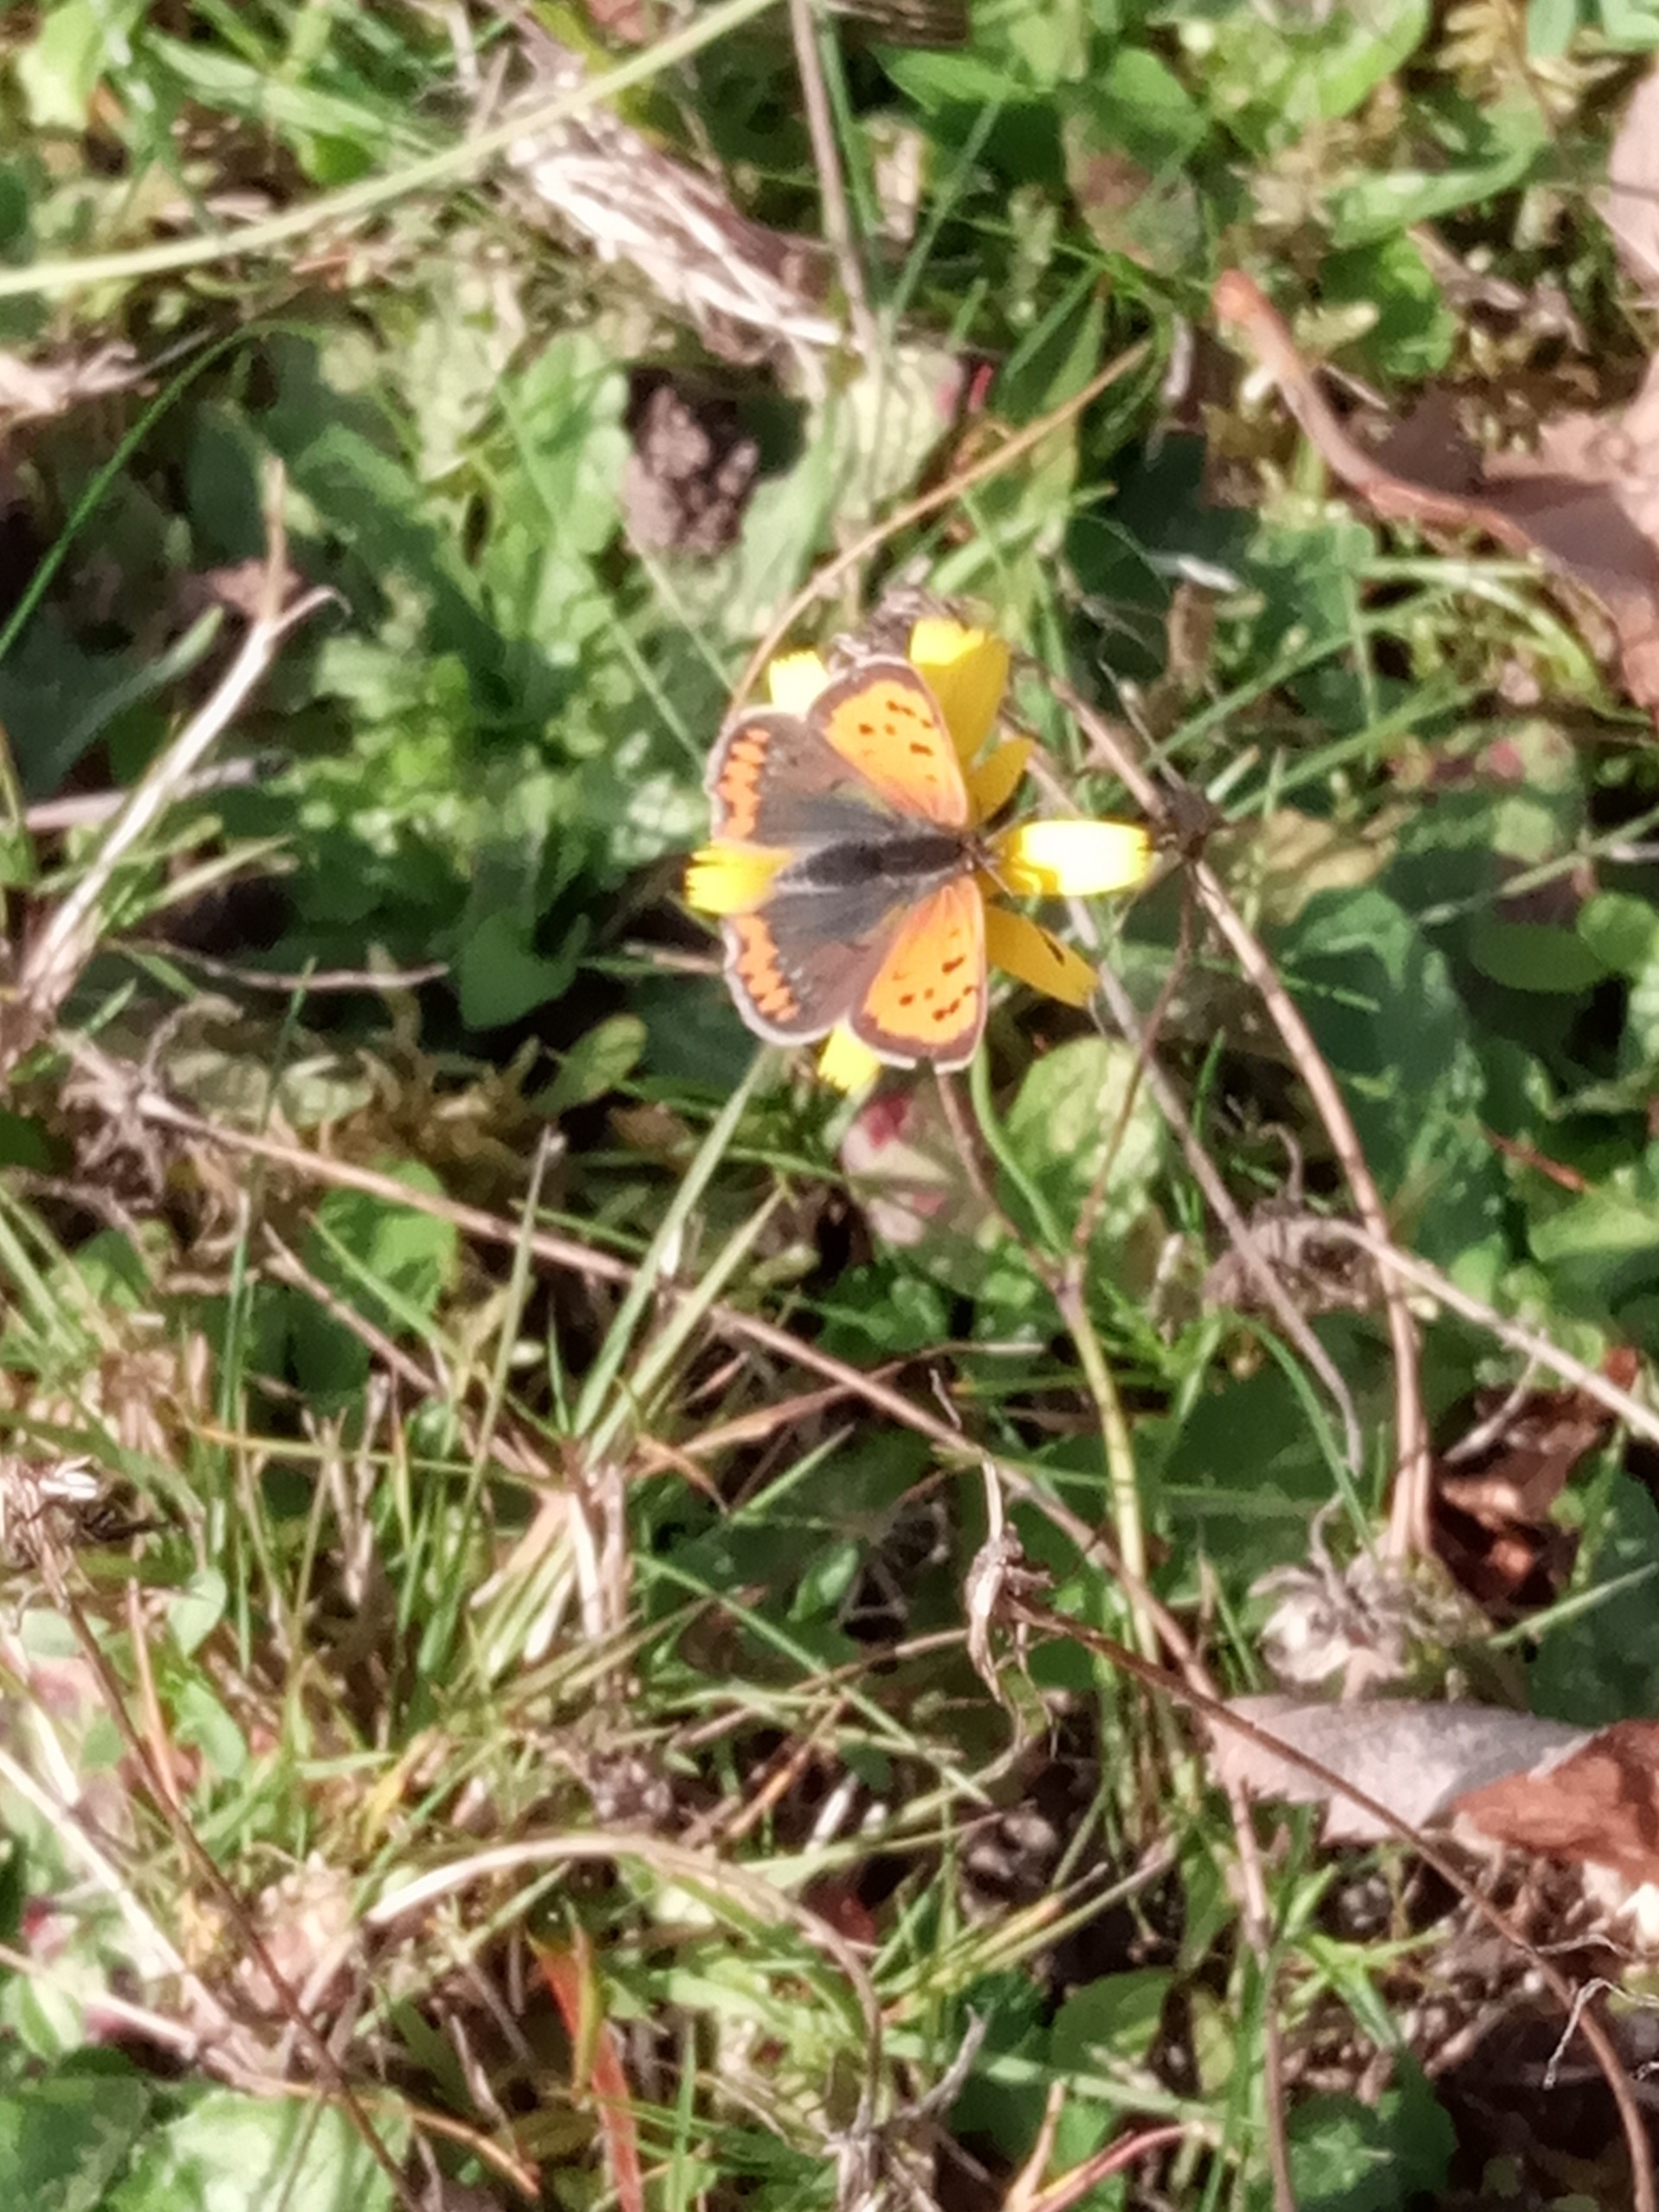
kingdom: Animalia
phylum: Arthropoda
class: Insecta
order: Lepidoptera
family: Lycaenidae
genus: Lycaena
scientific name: Lycaena phlaeas
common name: Lille ildfugl
